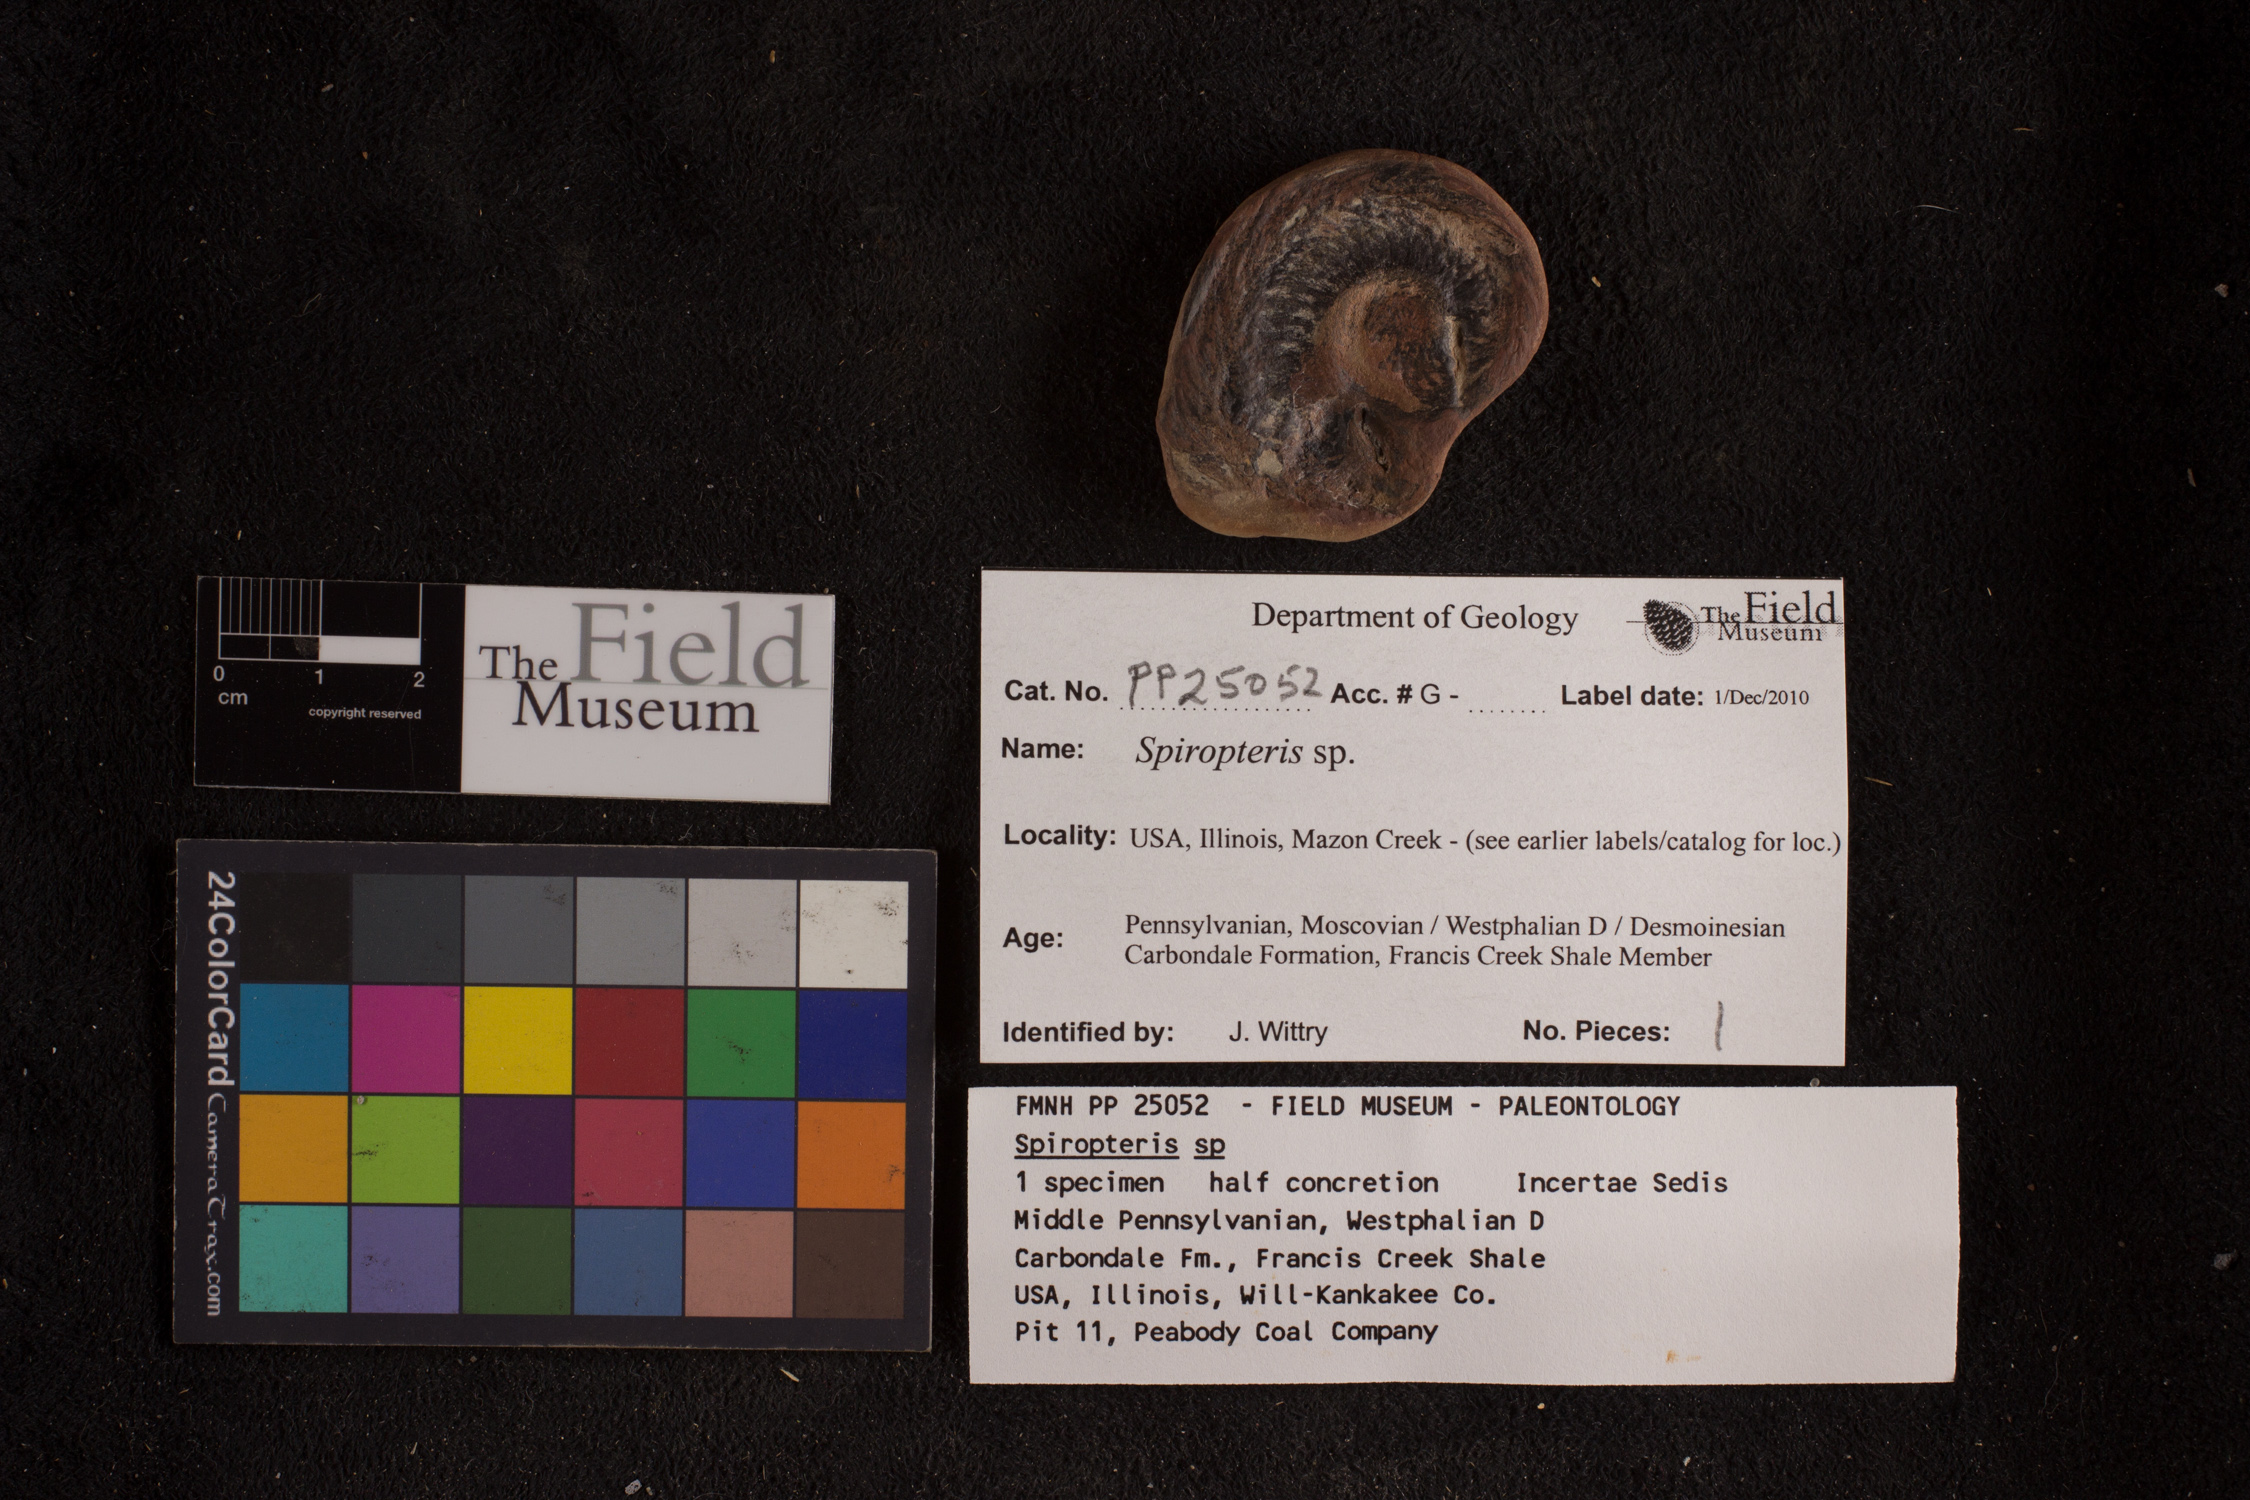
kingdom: Plantae
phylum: Tracheophyta
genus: Spiropteris
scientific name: Spiropteris
